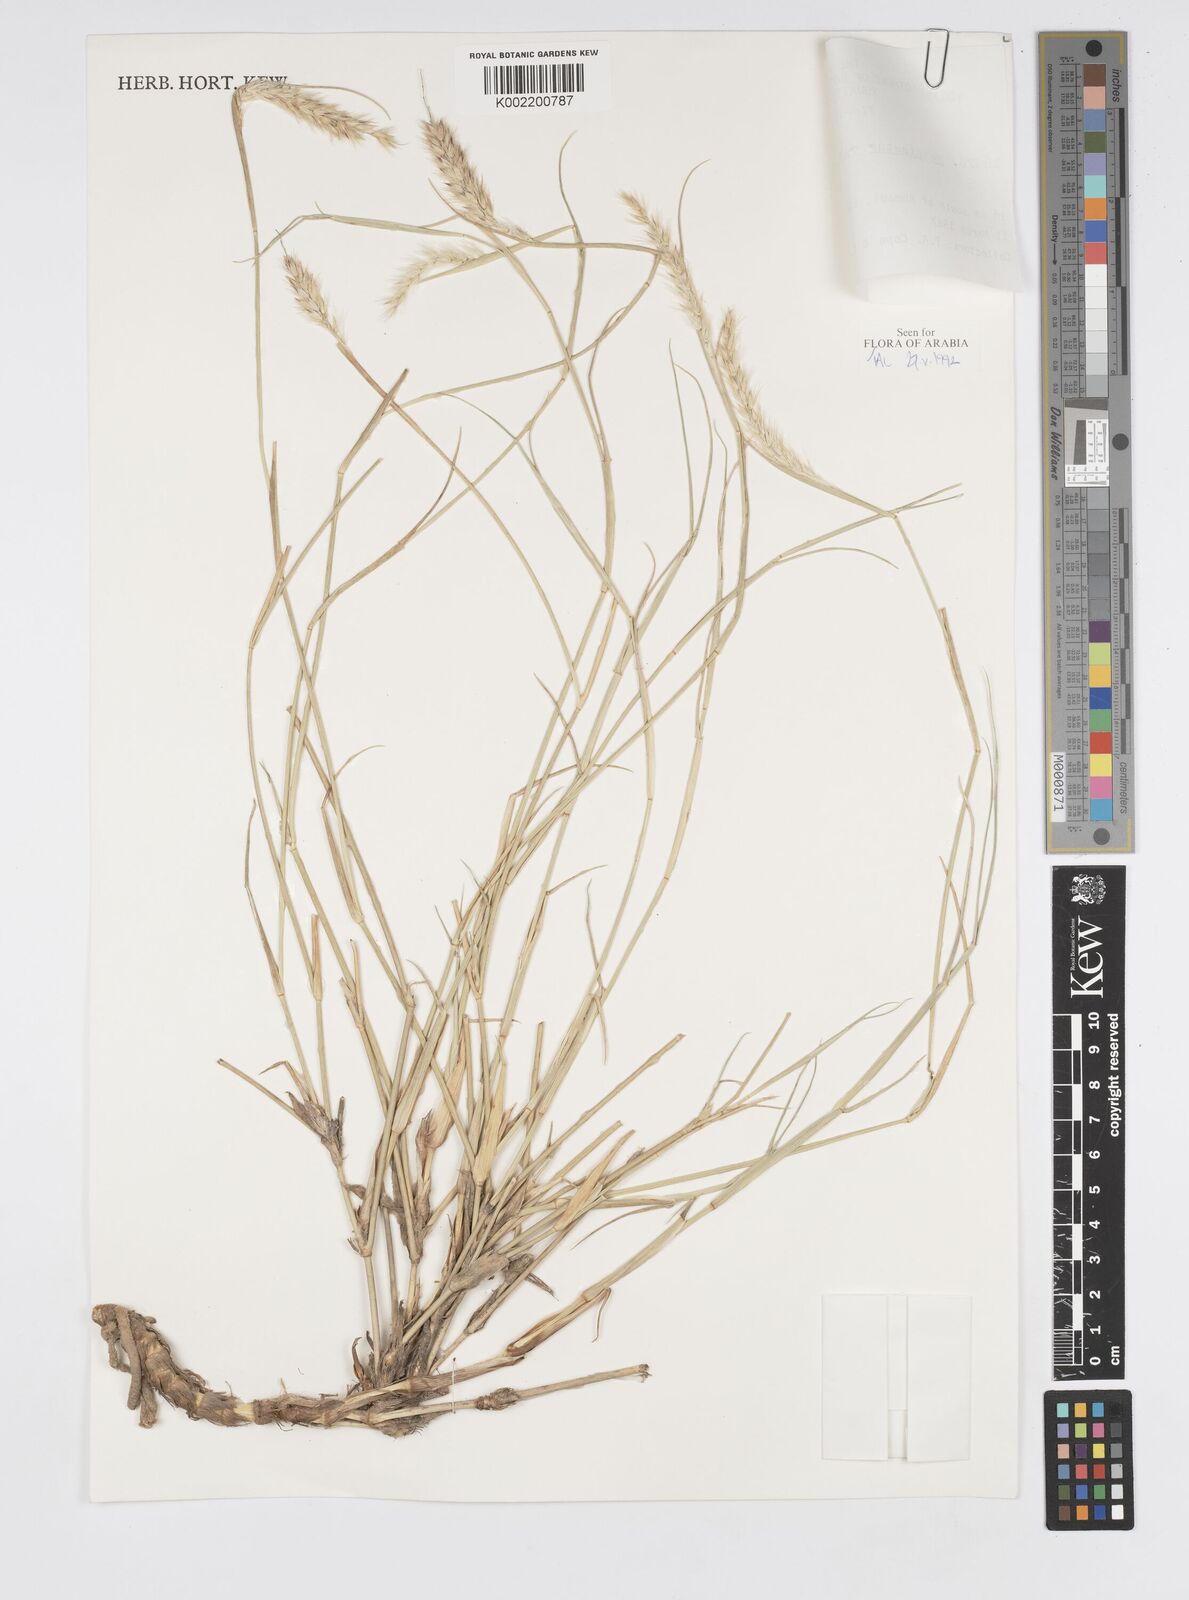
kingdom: Plantae
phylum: Tracheophyta
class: Liliopsida
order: Poales
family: Poaceae
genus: Cenchrus
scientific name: Cenchrus divisus
